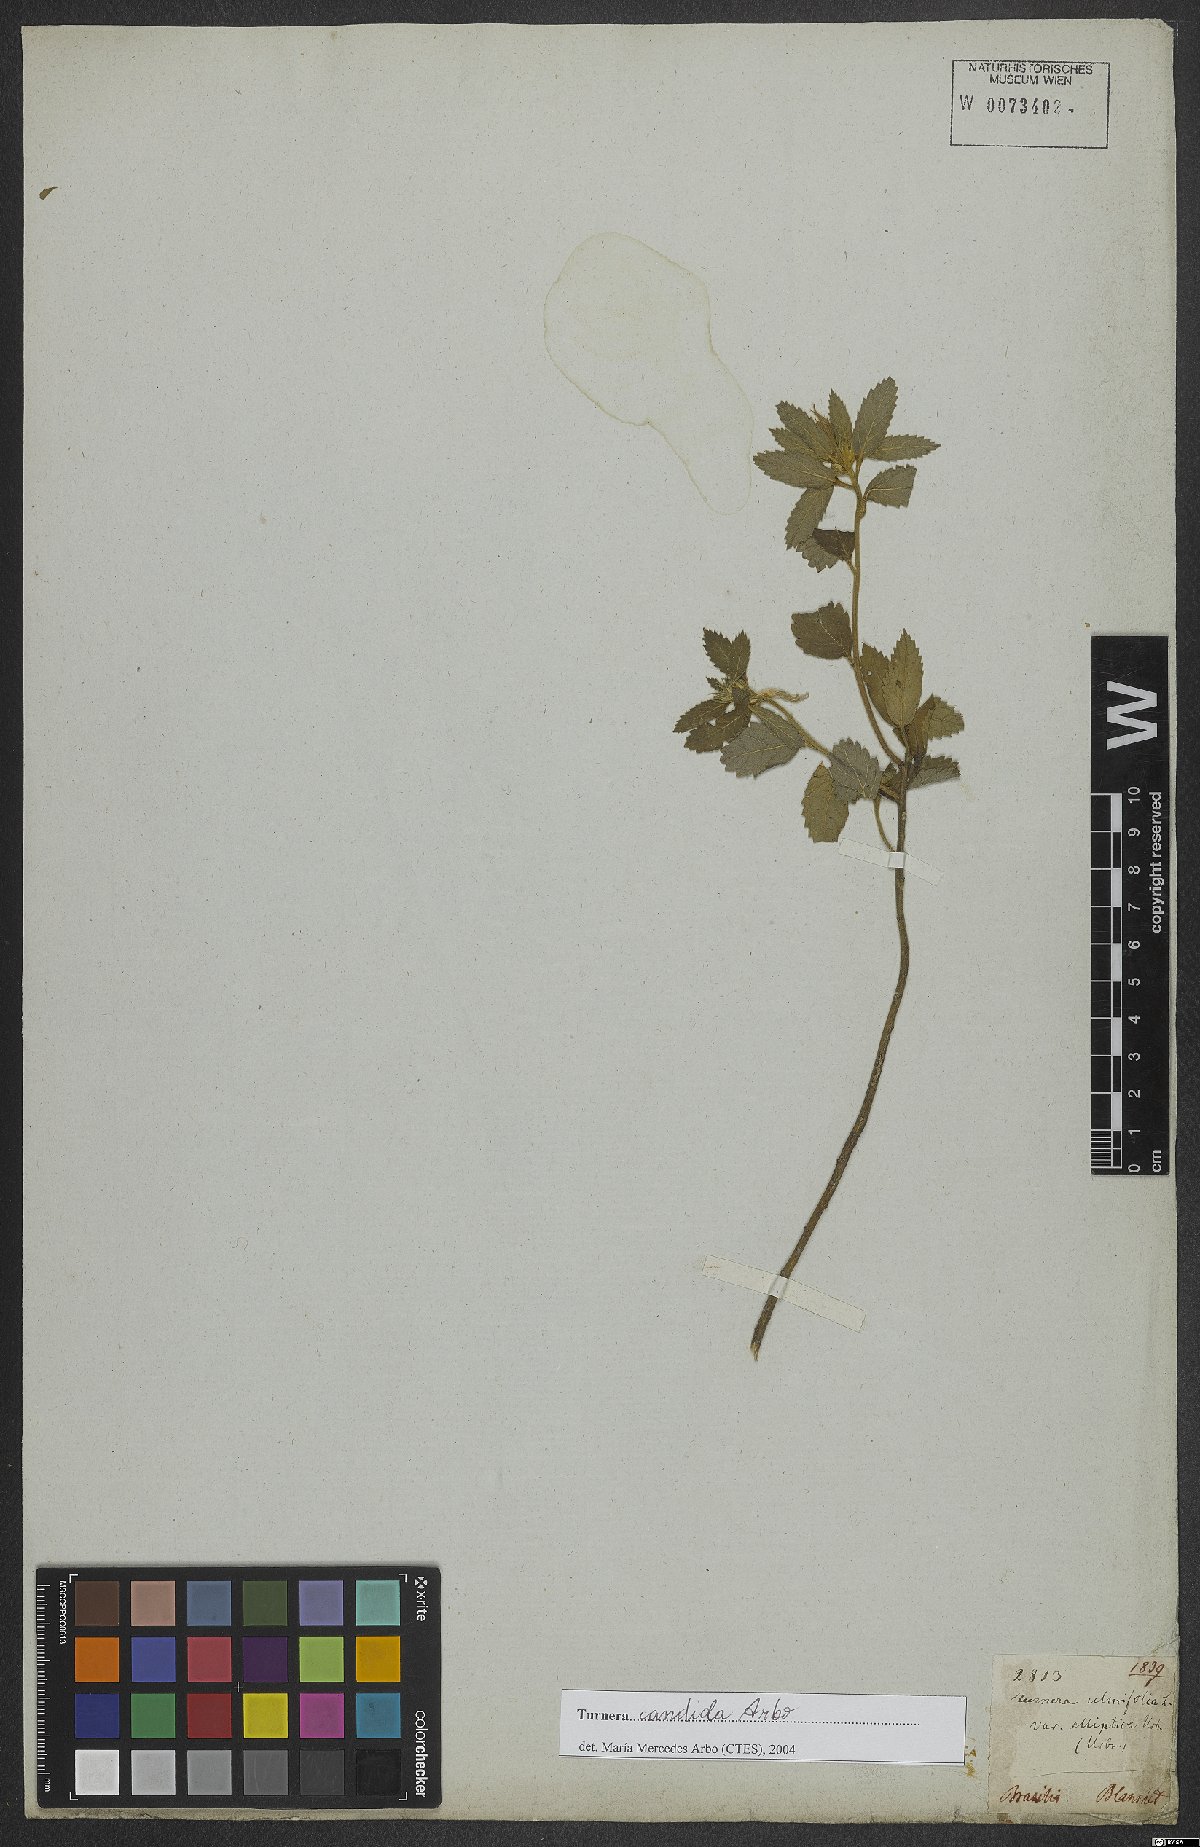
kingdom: Plantae
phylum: Tracheophyta
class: Magnoliopsida
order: Malpighiales
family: Turneraceae
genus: Turnera
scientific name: Turnera candida
